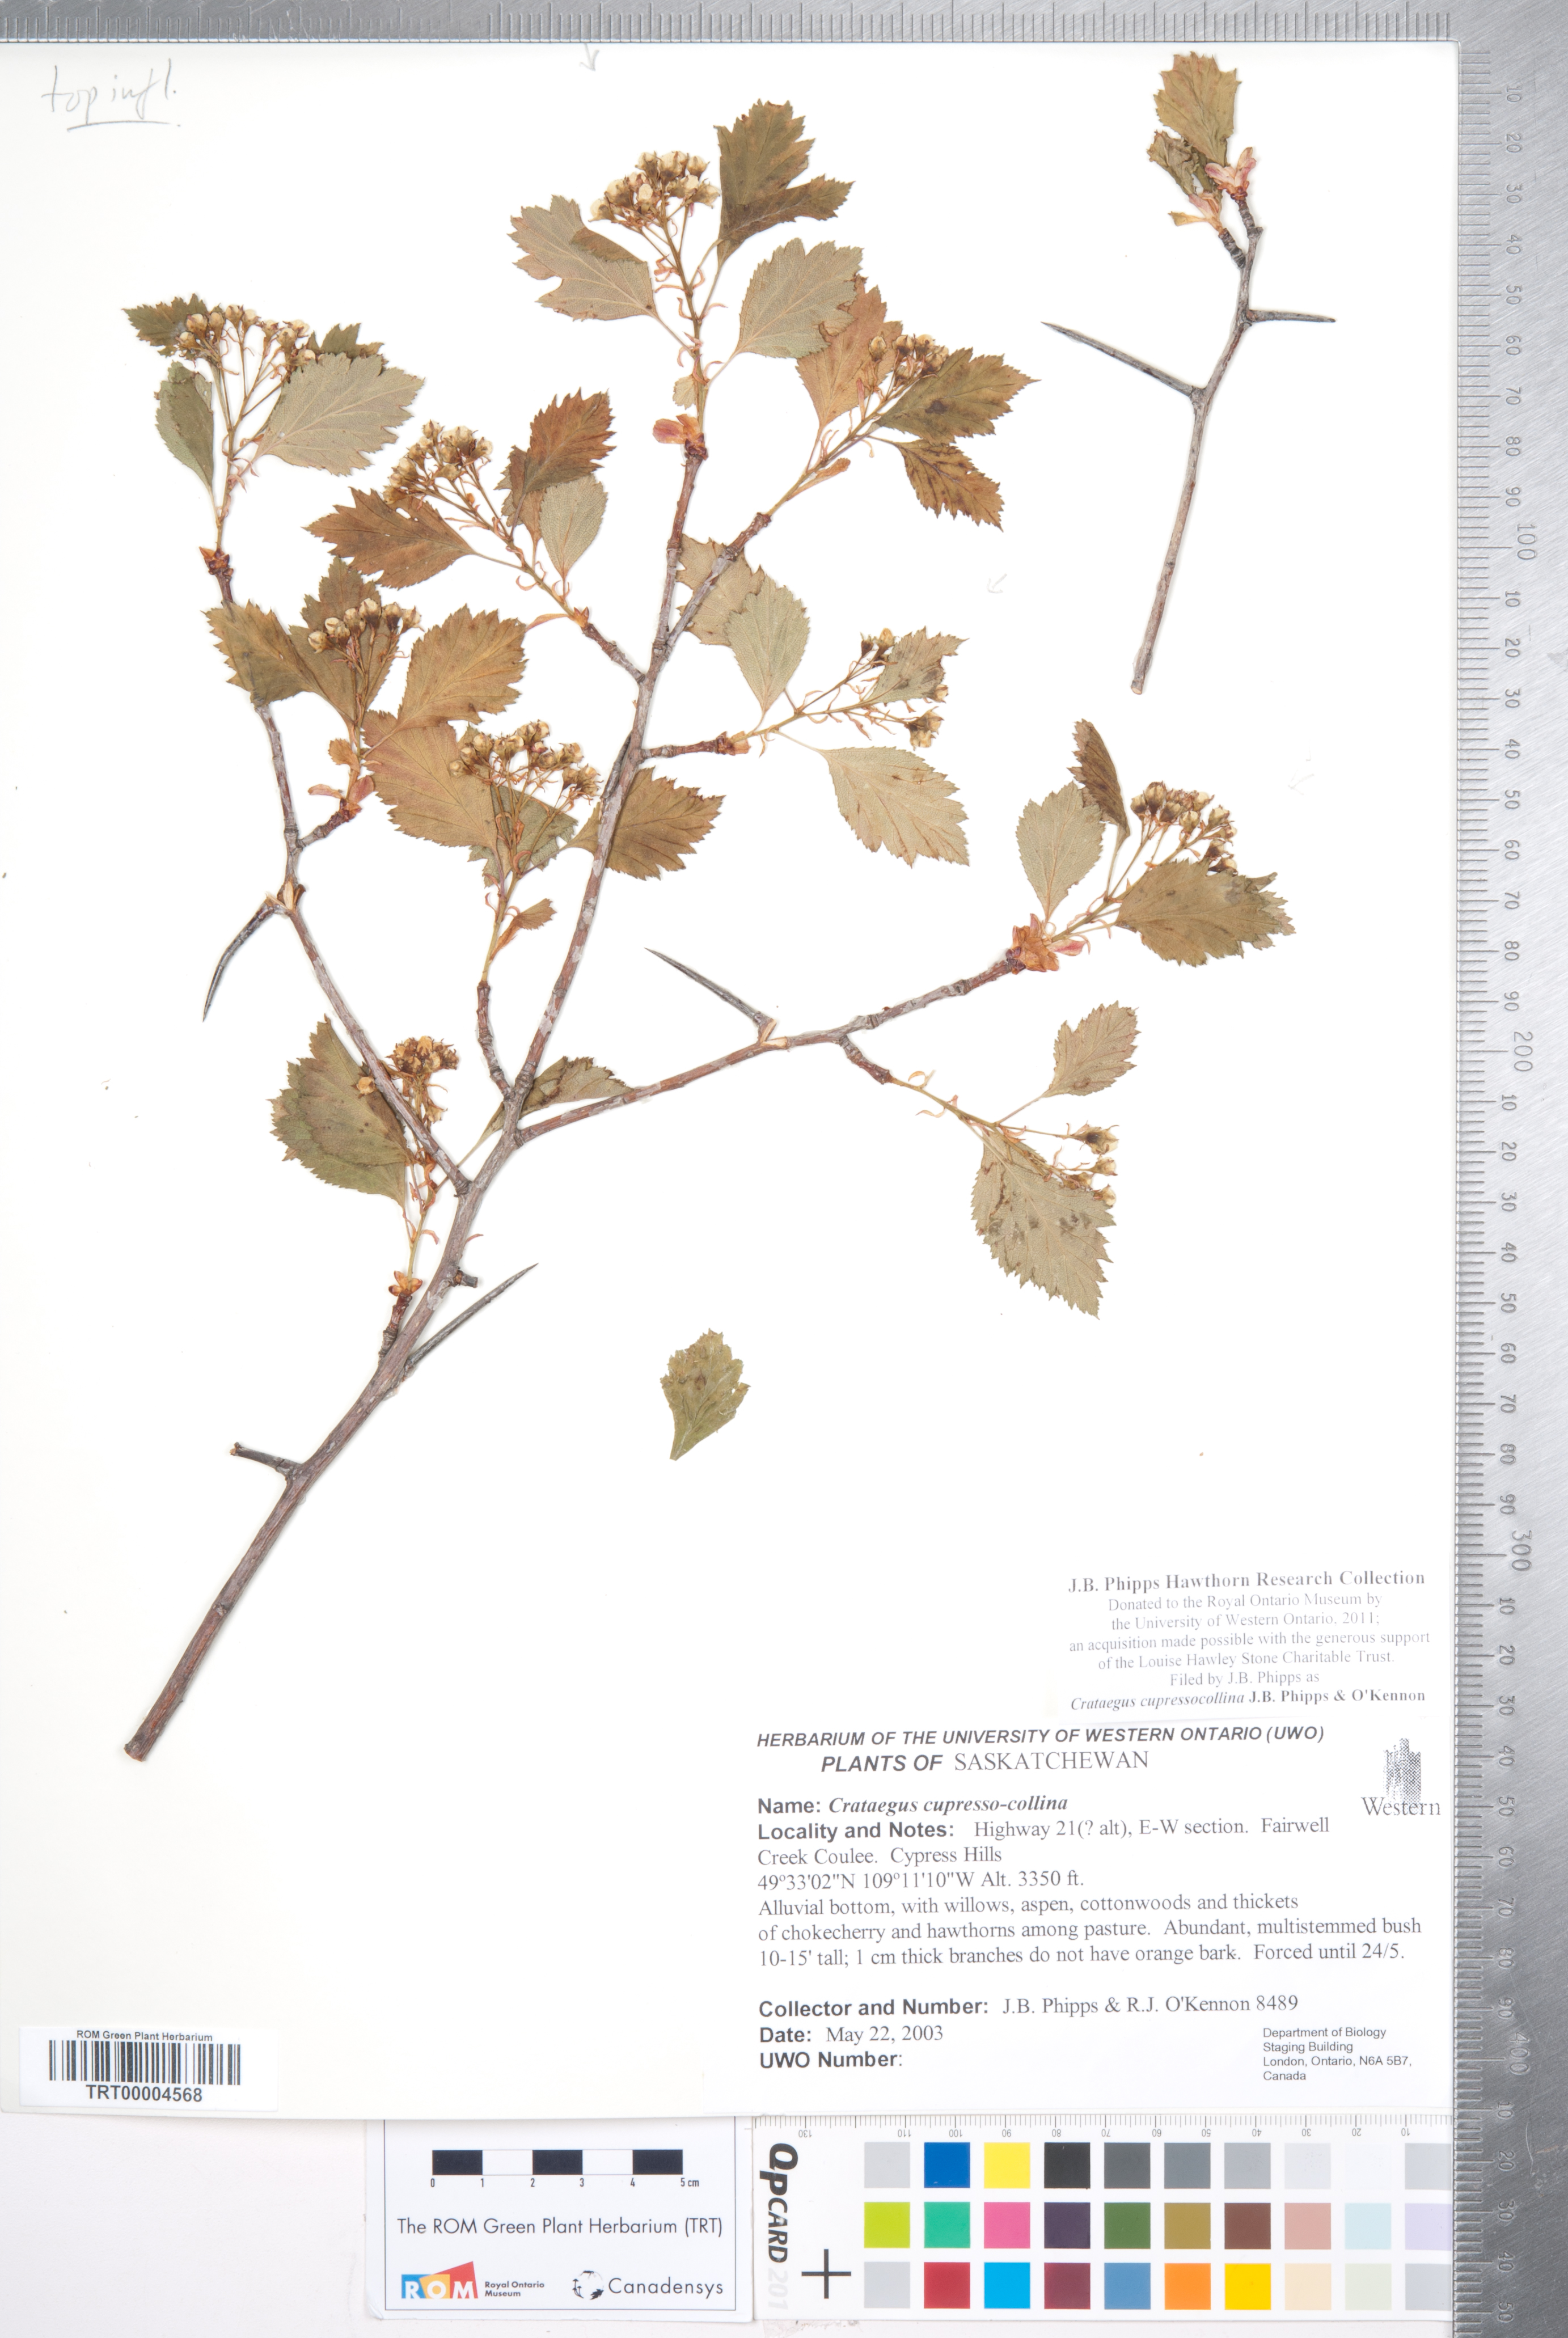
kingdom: Plantae
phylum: Tracheophyta
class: Magnoliopsida
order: Rosales
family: Rosaceae
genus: Crataegus
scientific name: Crataegus cupressocollina
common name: Cypress hills hawthorn
